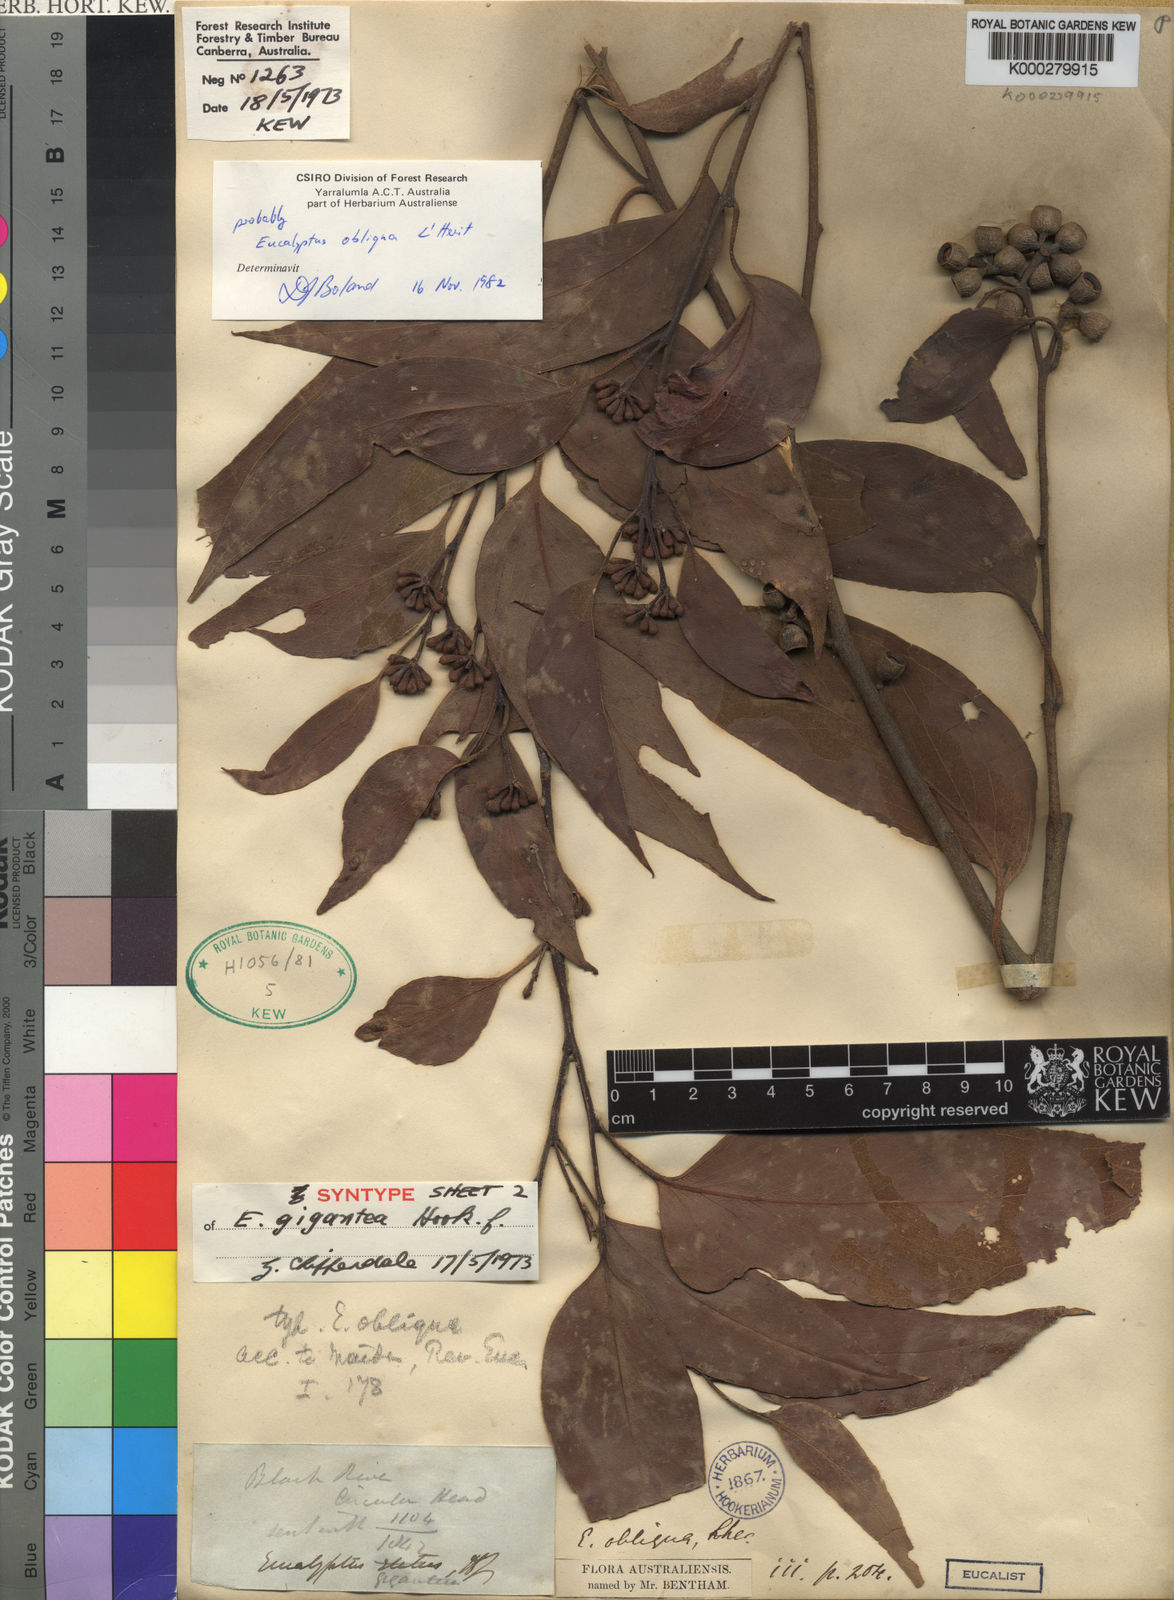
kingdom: Plantae
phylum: Tracheophyta
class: Magnoliopsida
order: Myrtales
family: Myrtaceae
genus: Eucalyptus
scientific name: Eucalyptus delegatensis
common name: Alpine-ash
